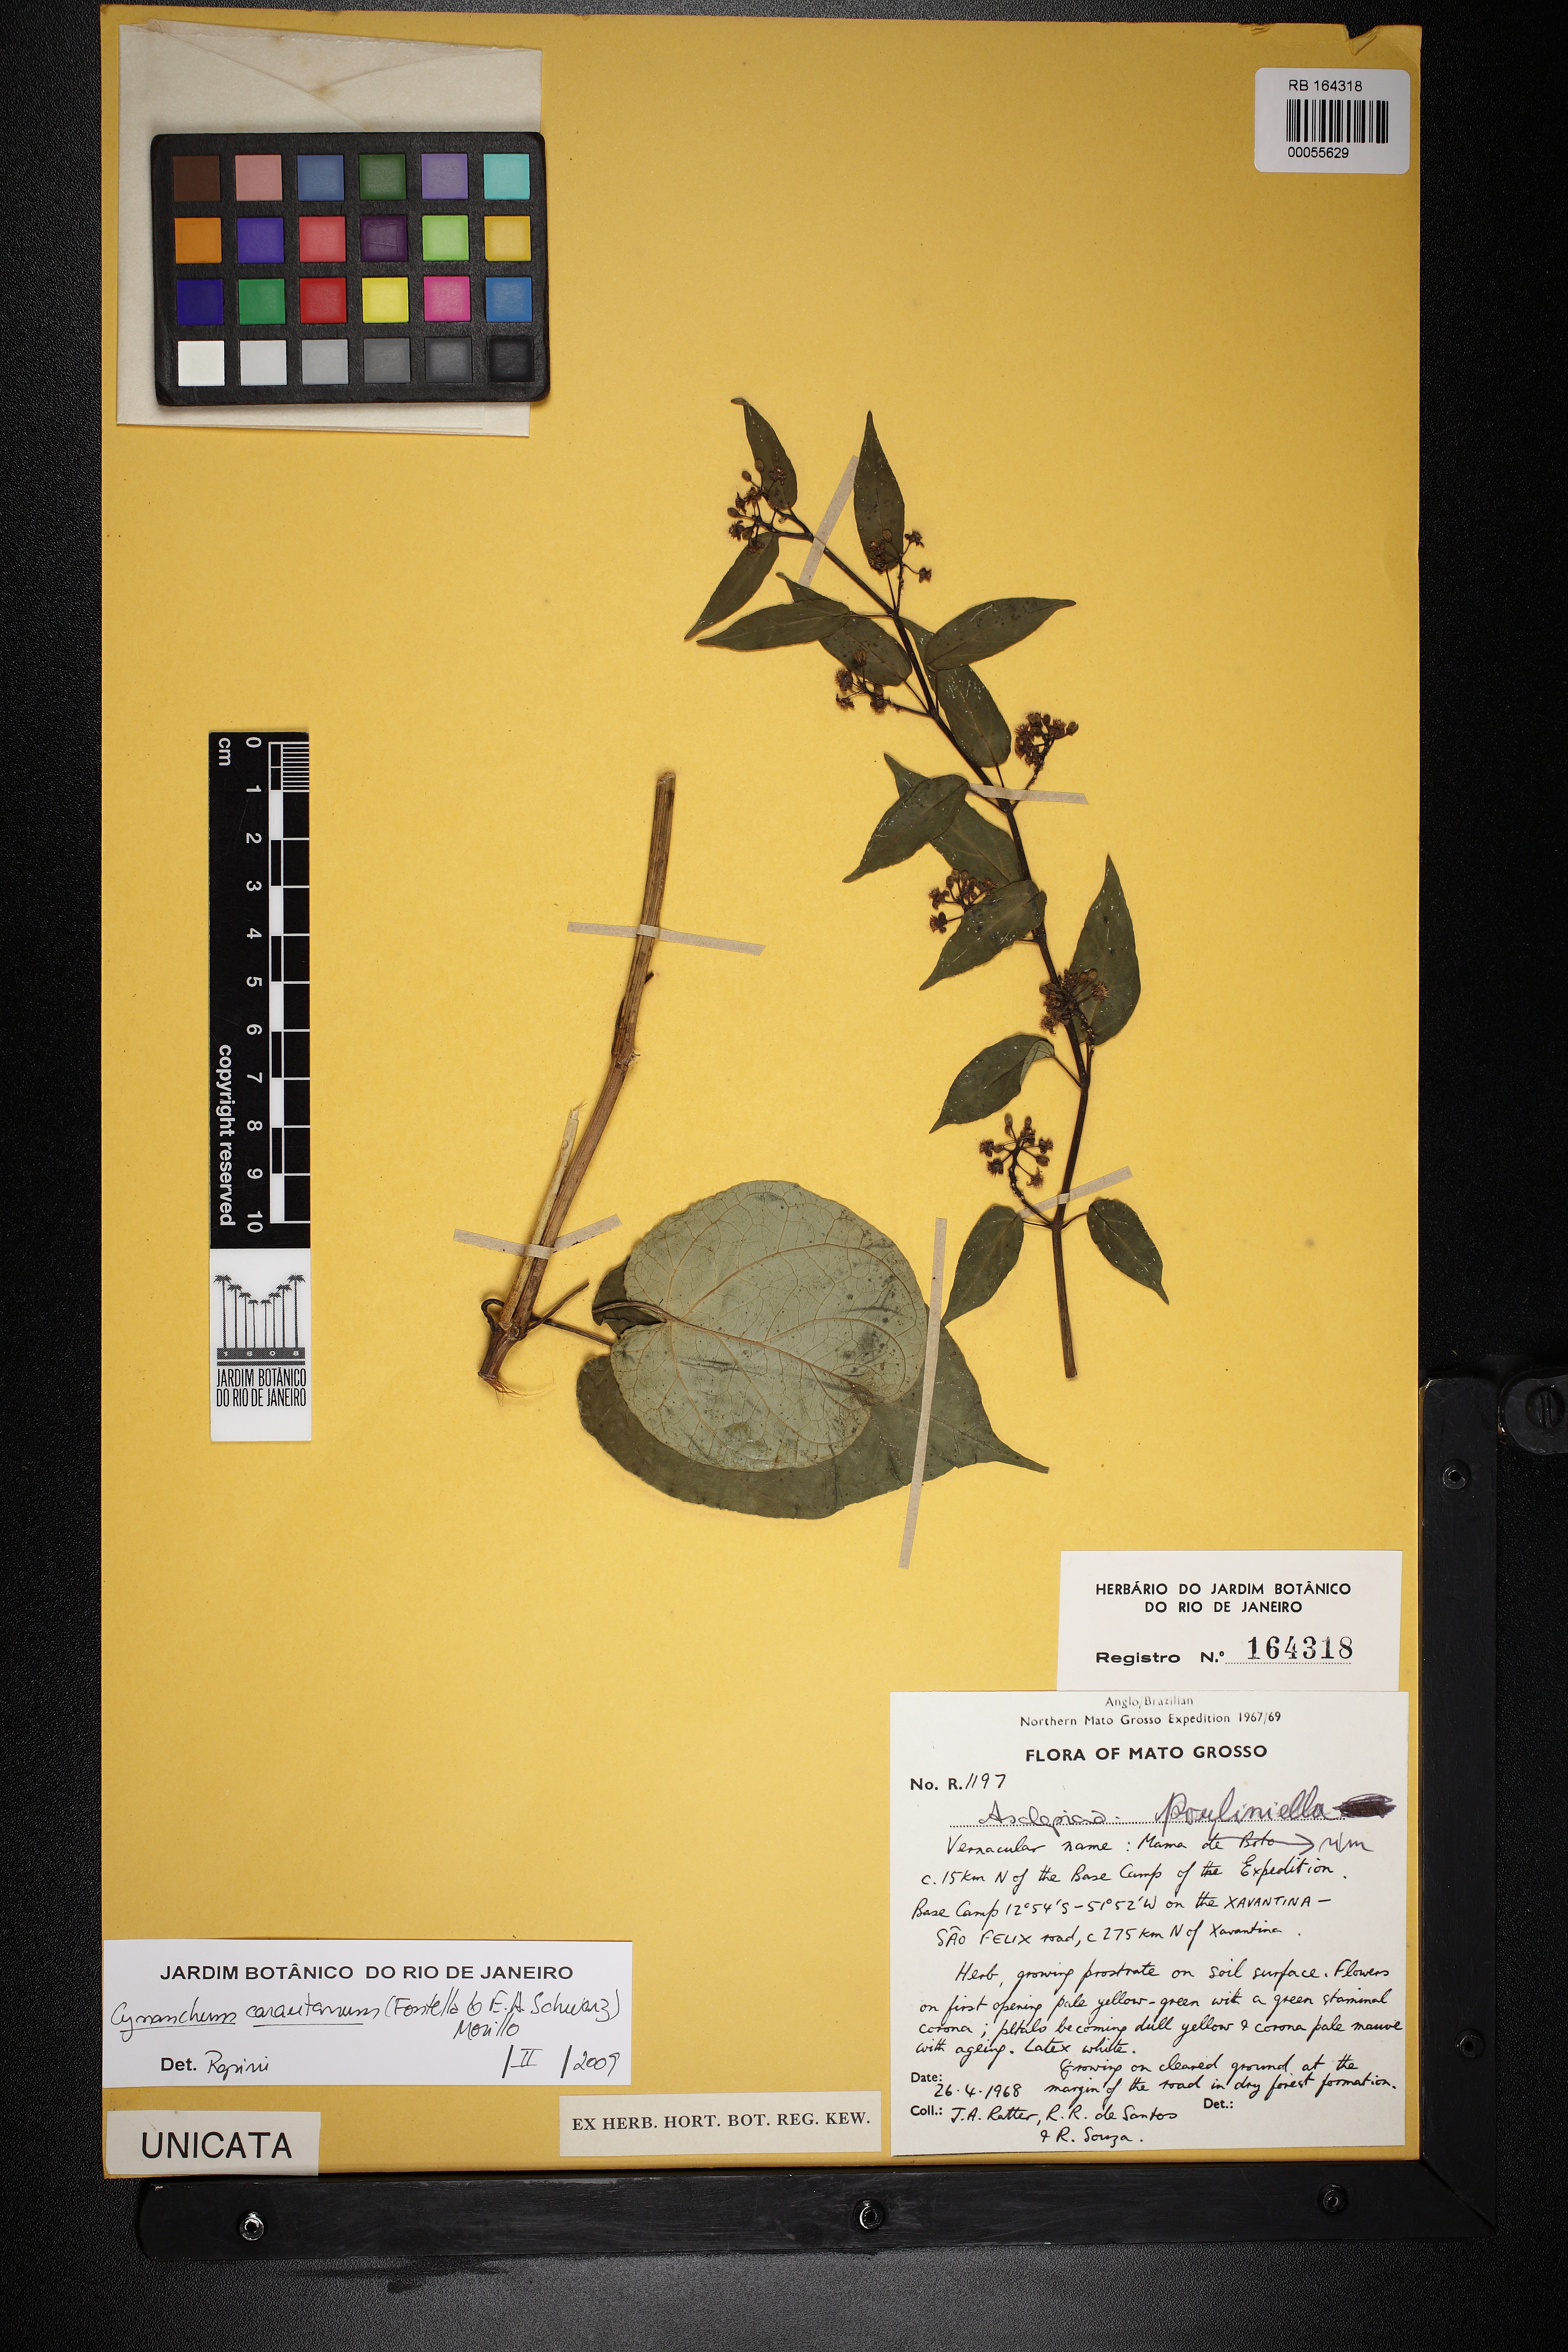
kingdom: Plantae
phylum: Tracheophyta
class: Magnoliopsida
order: Gentianales
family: Apocynaceae
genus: Cynanchum
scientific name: Cynanchum carautanum
